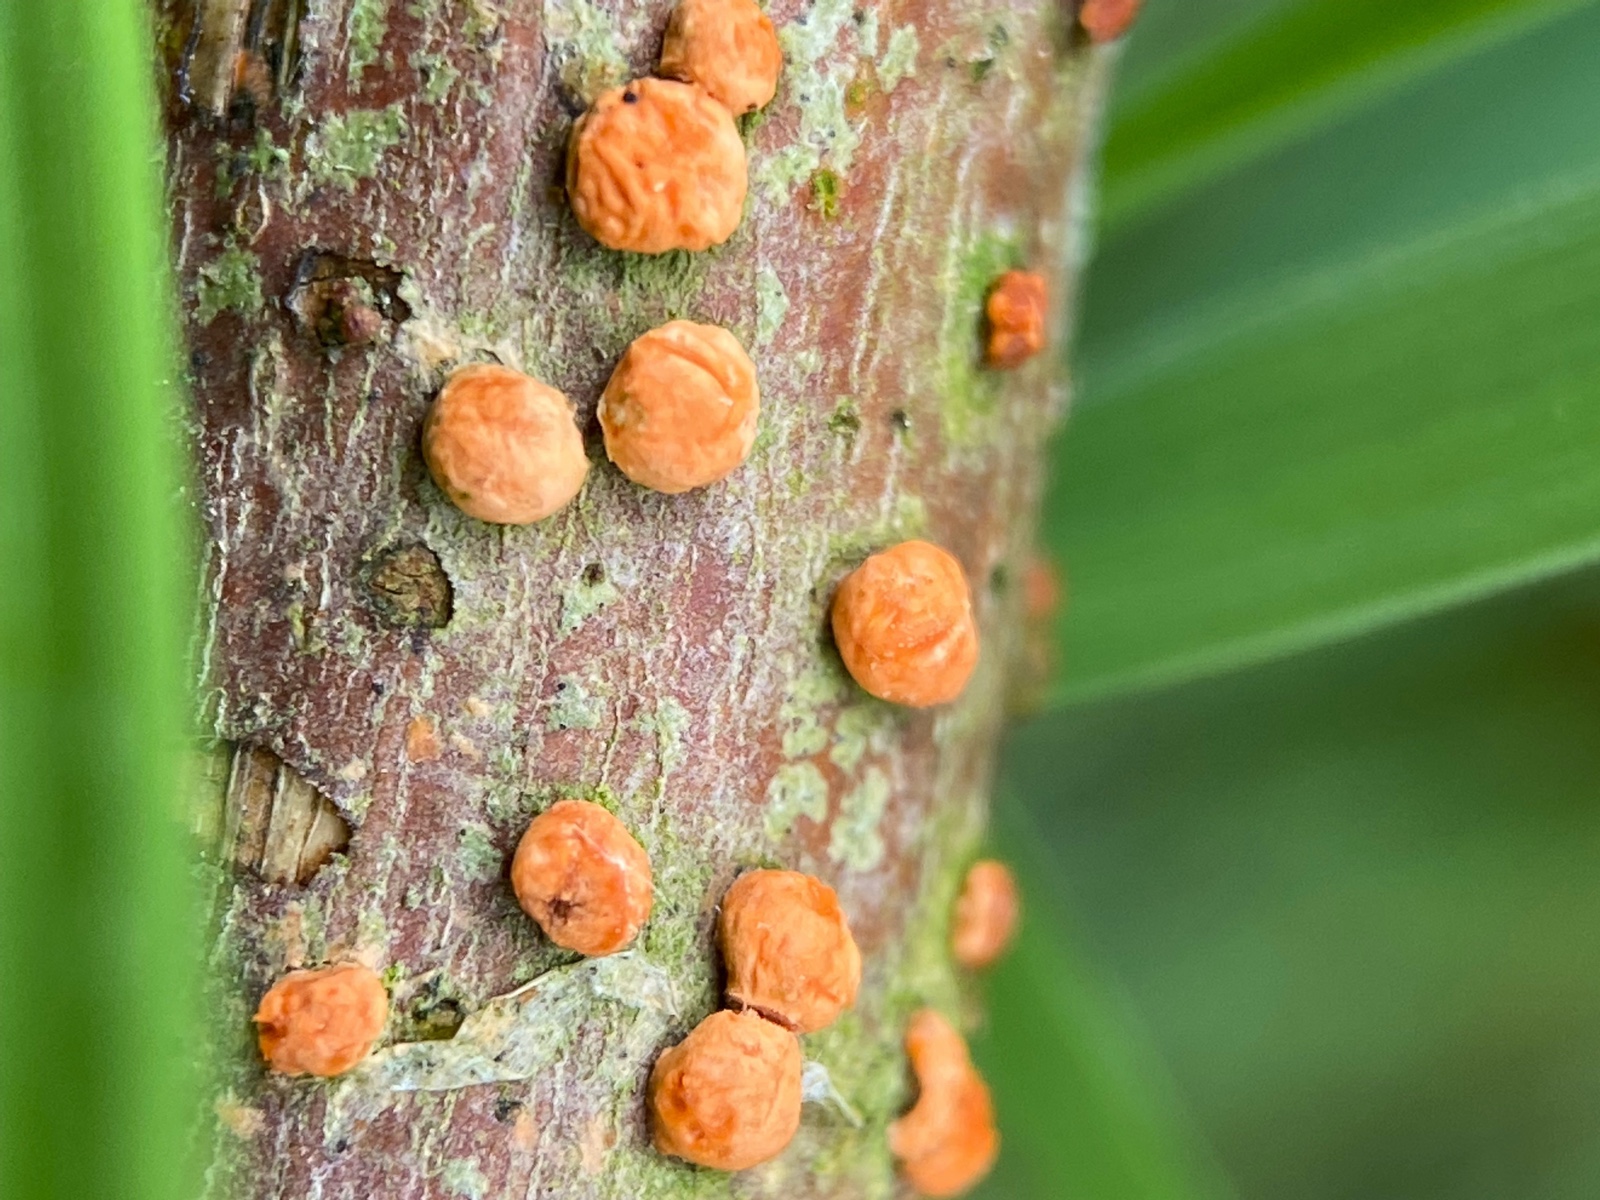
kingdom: Fungi
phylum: Ascomycota
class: Sordariomycetes
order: Hypocreales
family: Nectriaceae
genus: Nectria
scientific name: Nectria cinnabarina
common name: almindelig cinnobersvamp
